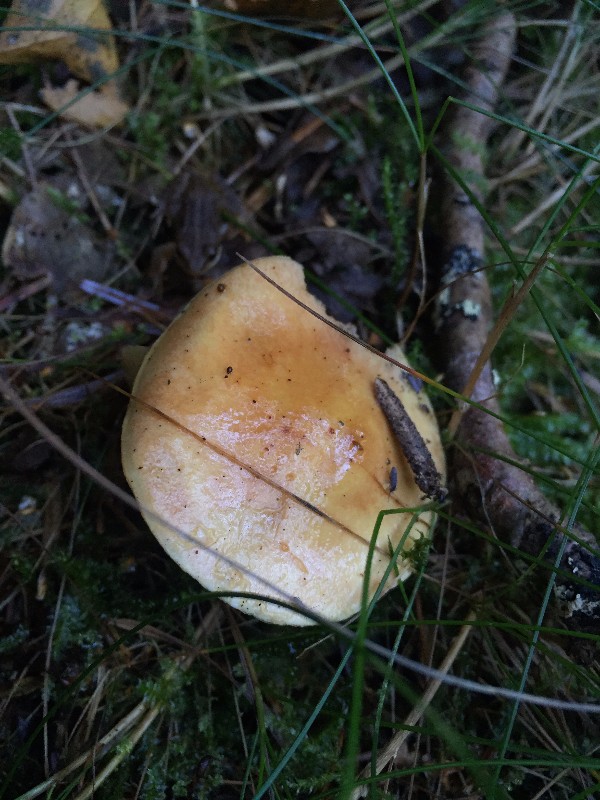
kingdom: Fungi
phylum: Basidiomycota
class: Agaricomycetes
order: Boletales
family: Suillaceae
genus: Suillus
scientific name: Suillus grevillei
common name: lærke-slimrørhat
